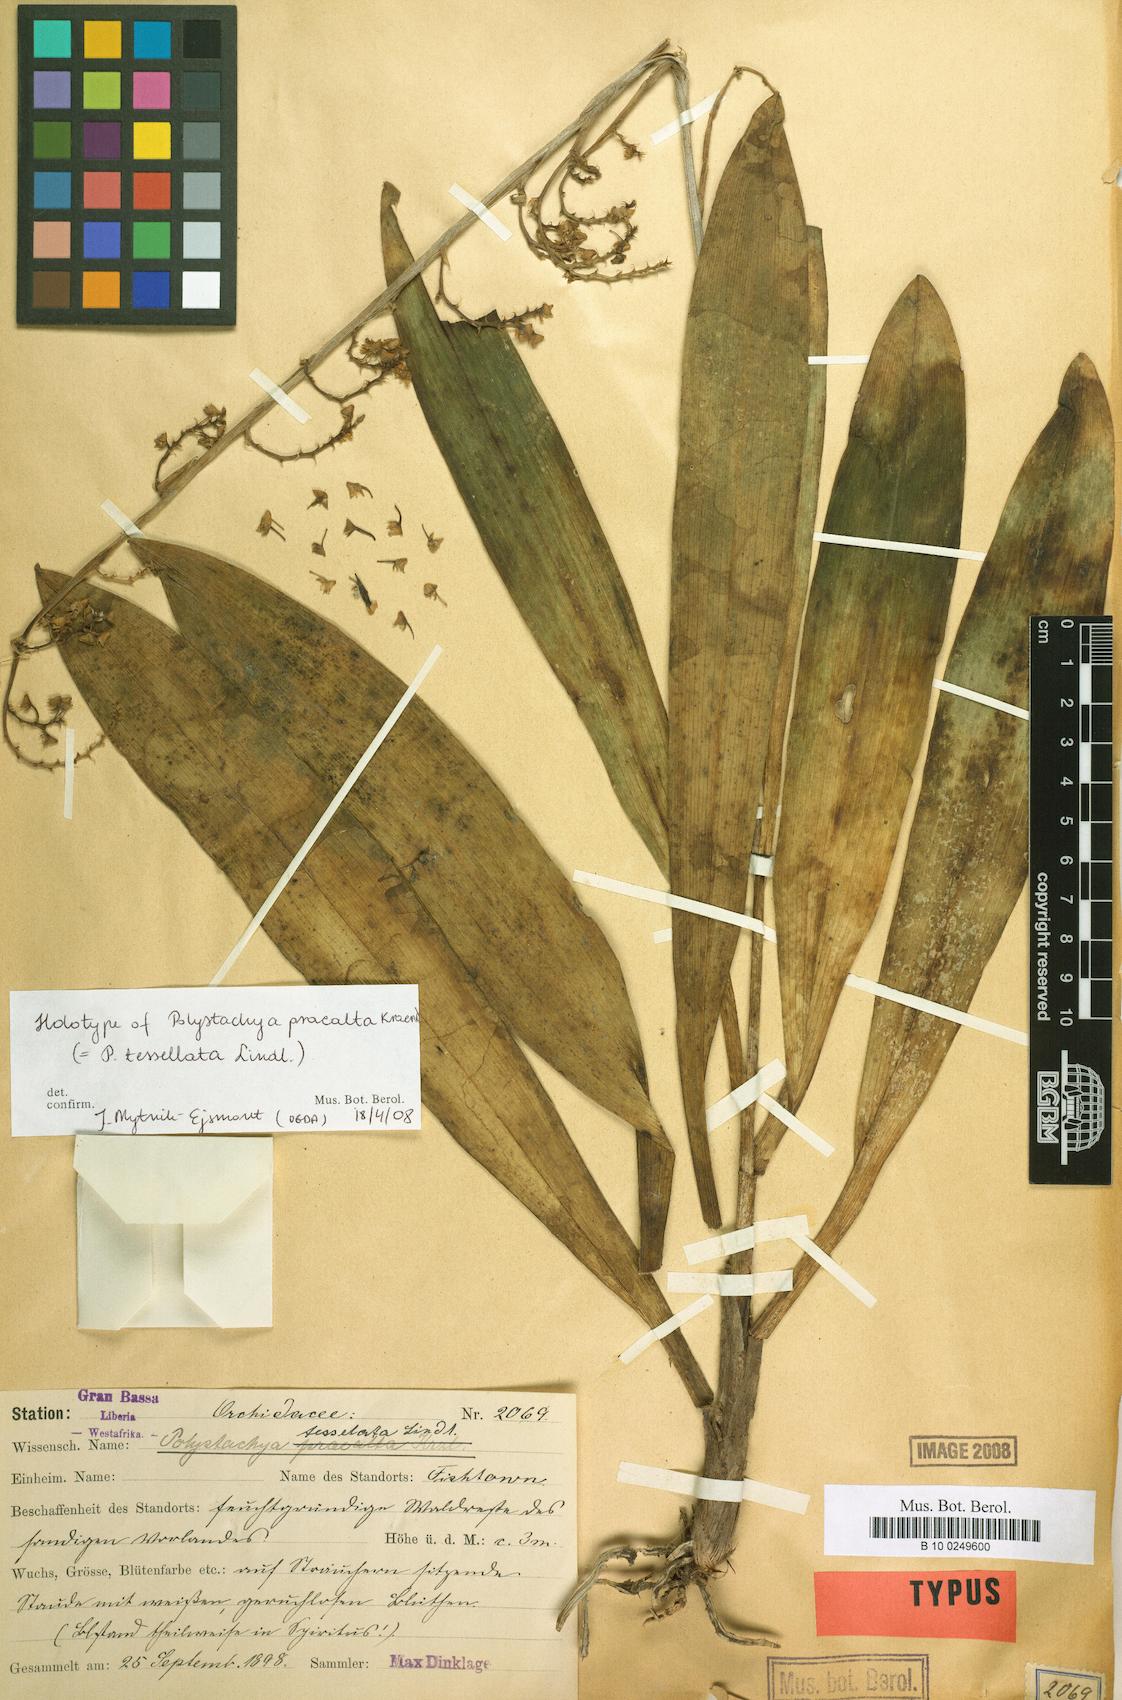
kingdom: Plantae
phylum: Tracheophyta
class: Liliopsida
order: Asparagales
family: Orchidaceae
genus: Polystachya
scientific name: Polystachya concreta
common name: Greater yellowspike orchid
